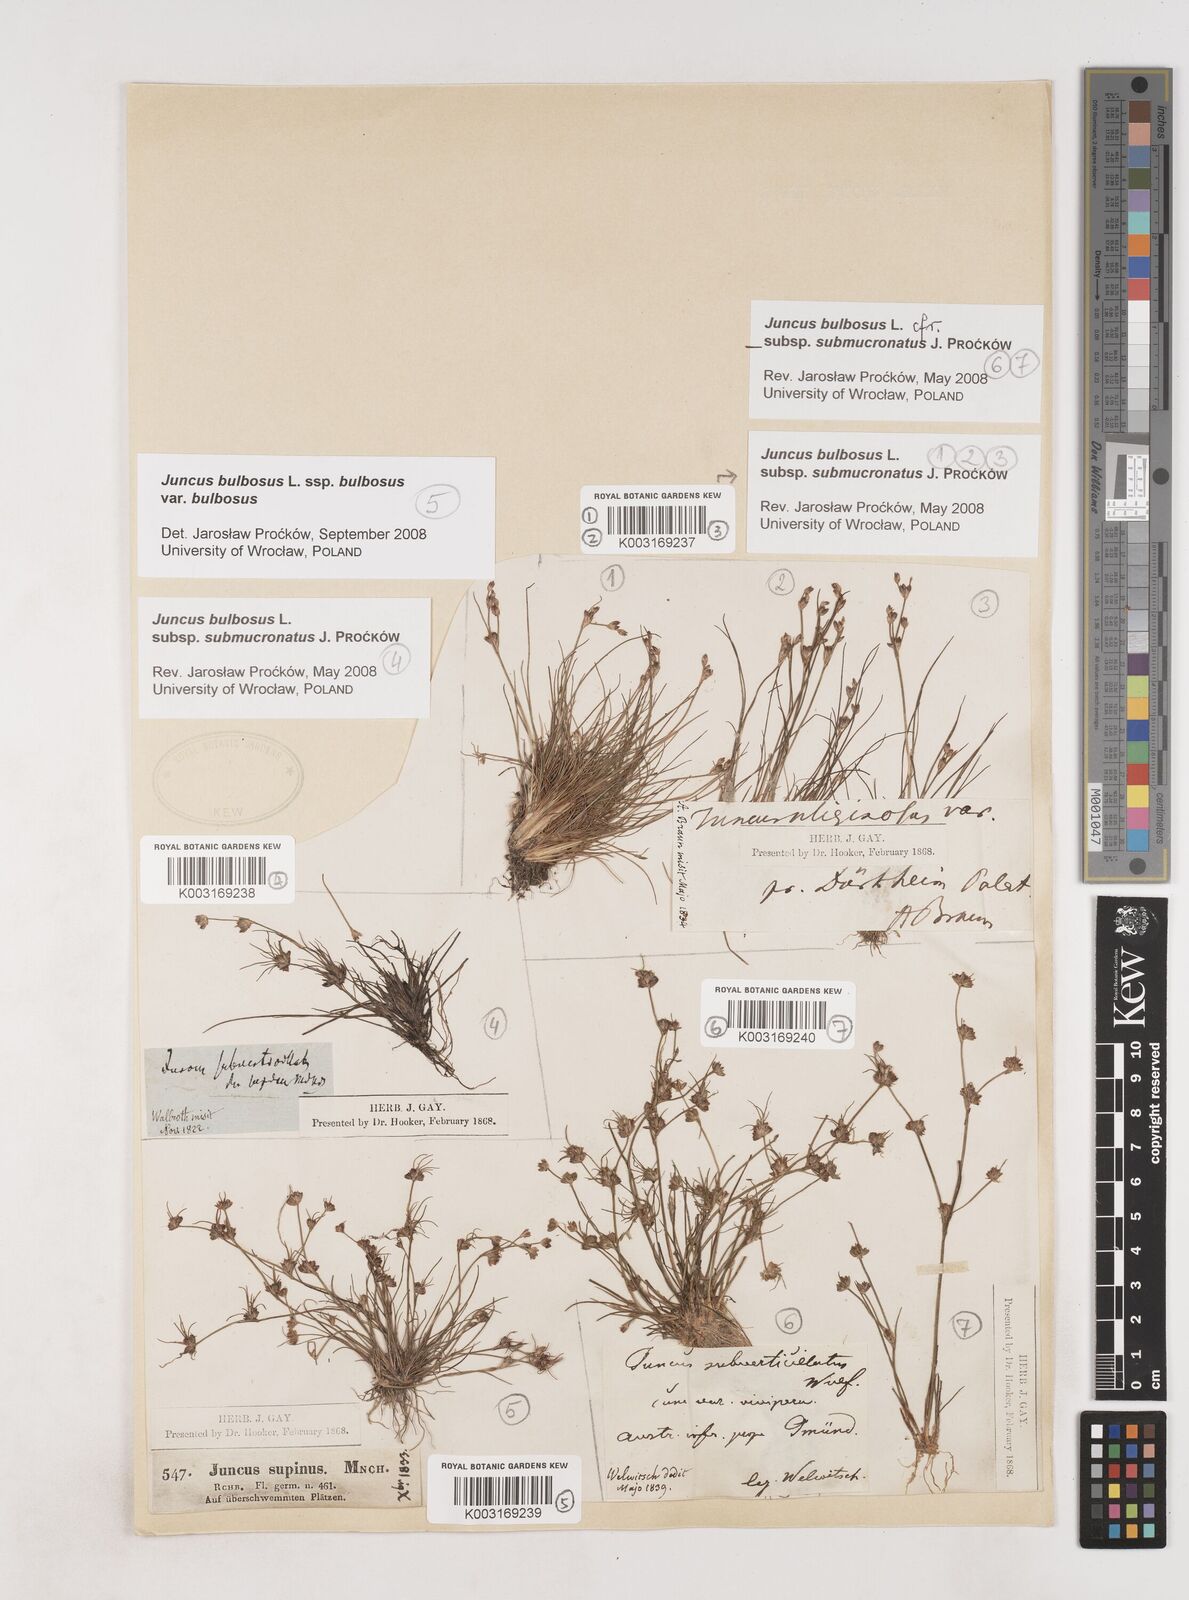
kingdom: Plantae
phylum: Tracheophyta
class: Liliopsida
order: Poales
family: Juncaceae
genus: Juncus
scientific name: Juncus bulbosus
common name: Bulbous rush
